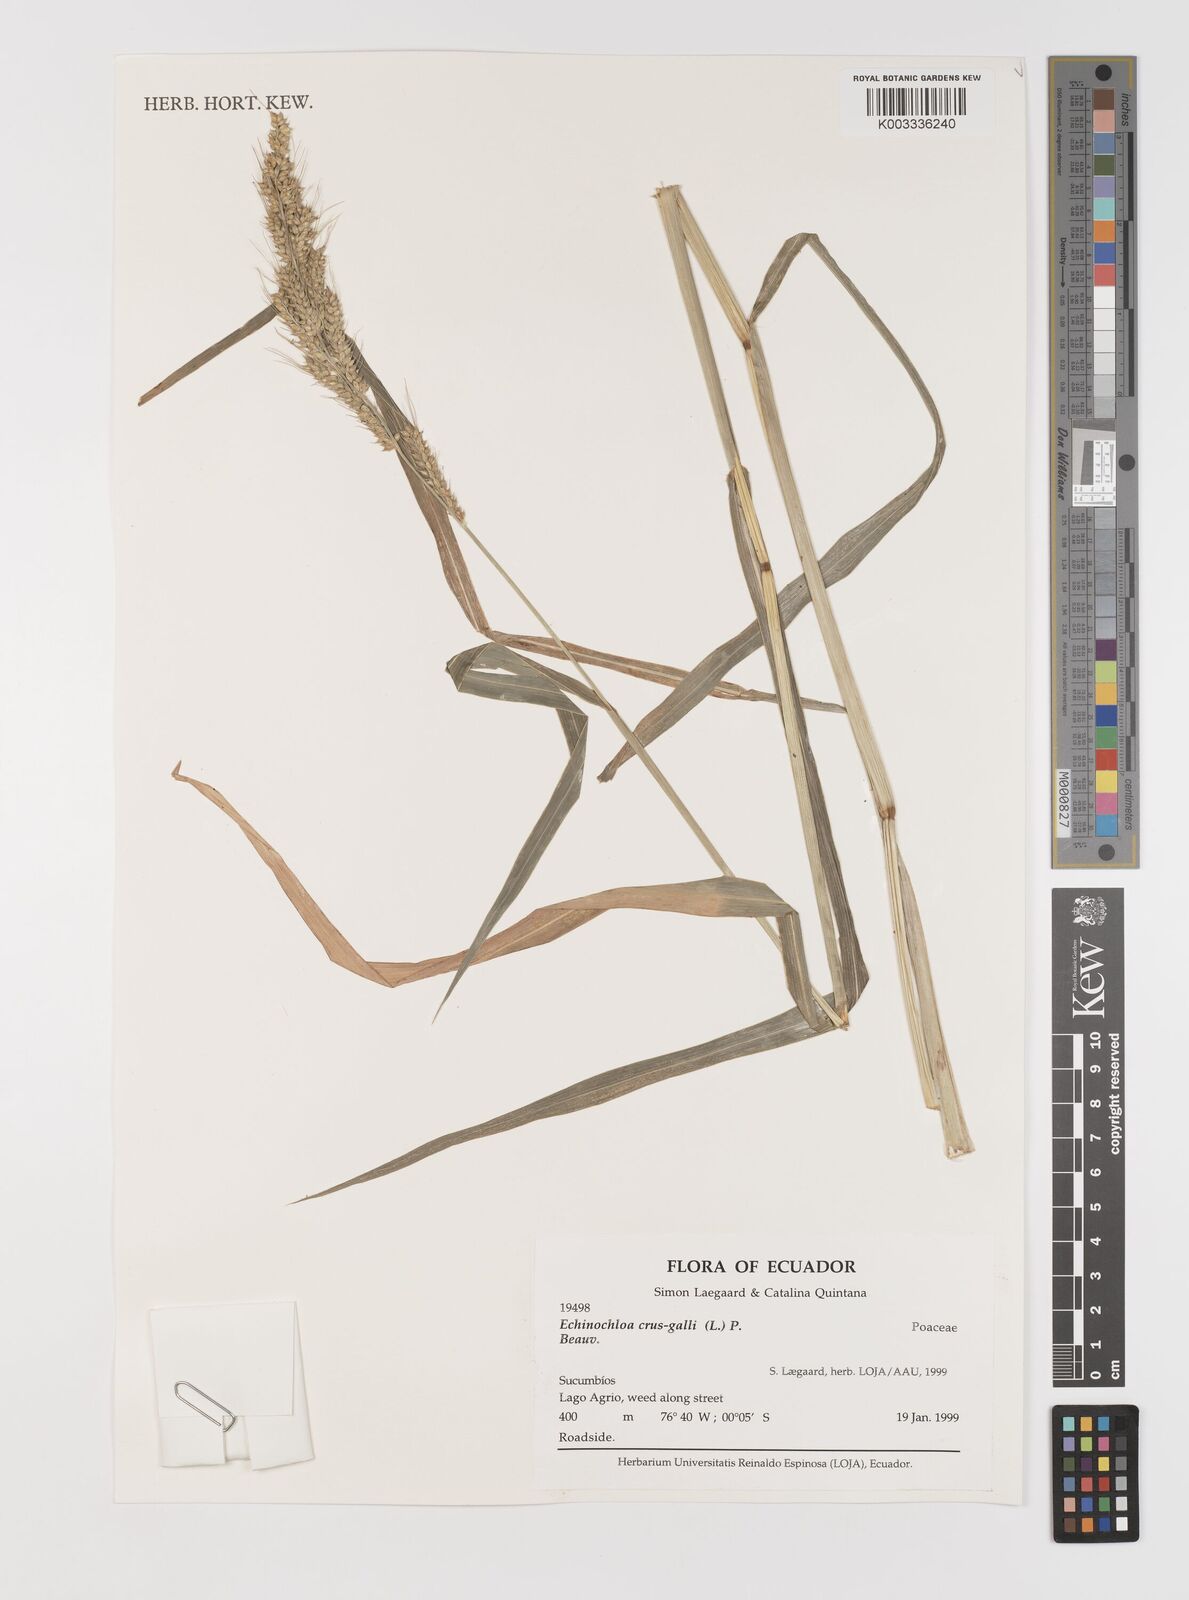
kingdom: Plantae
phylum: Tracheophyta
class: Liliopsida
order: Poales
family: Poaceae
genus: Echinochloa
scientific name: Echinochloa crus-galli
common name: Cockspur
